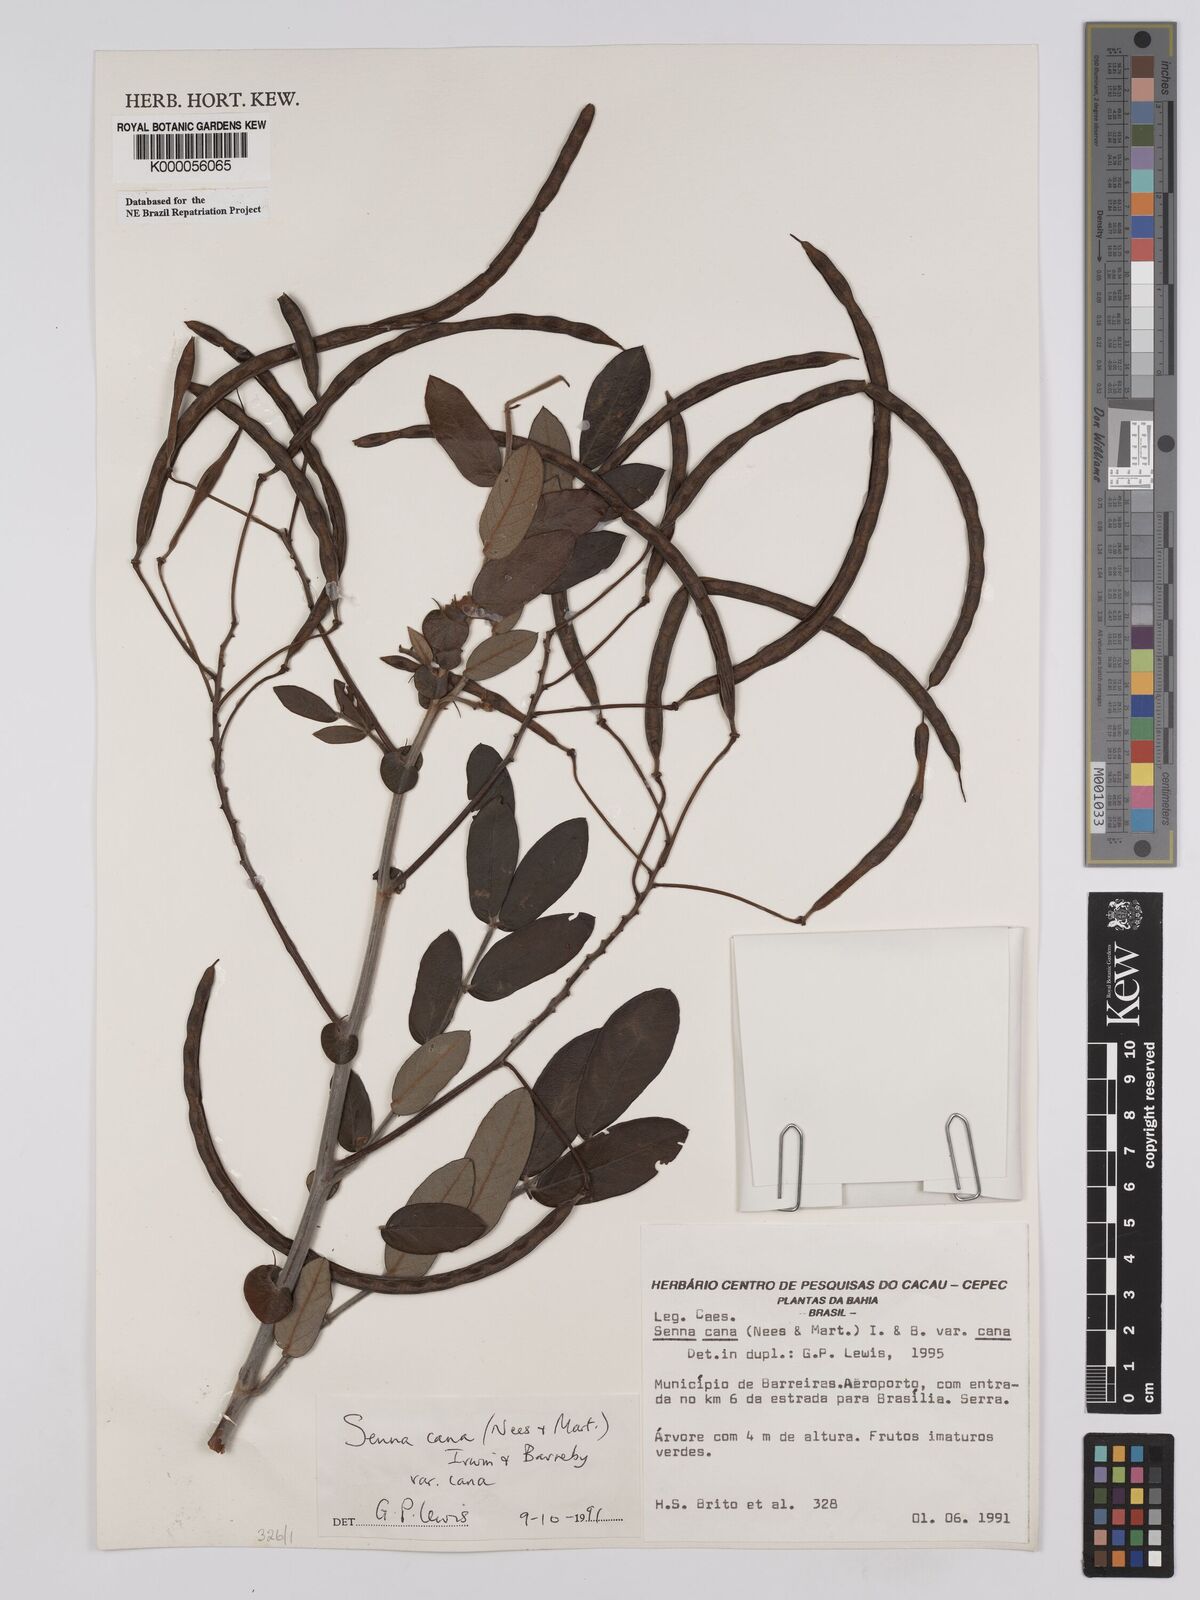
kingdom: Plantae
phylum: Tracheophyta
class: Magnoliopsida
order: Fabales
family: Fabaceae
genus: Senna
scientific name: Senna cana
